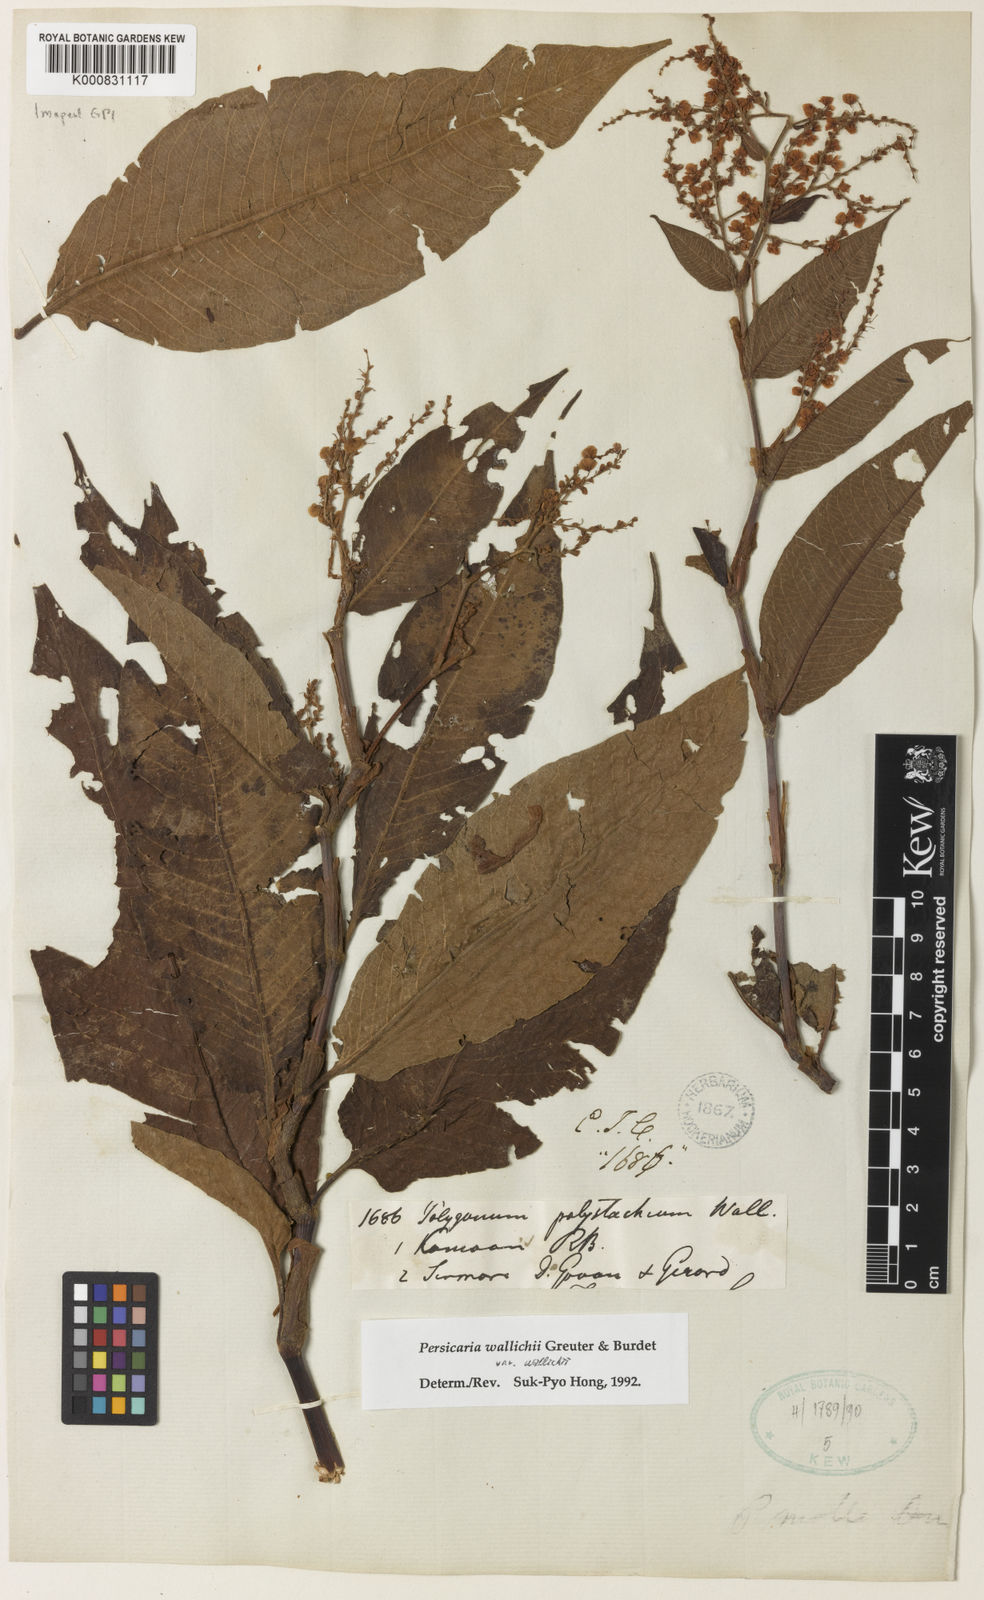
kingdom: Plantae
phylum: Tracheophyta
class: Magnoliopsida
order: Caryophyllales
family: Polygonaceae
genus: Persicaria
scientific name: Persicaria microcephala
